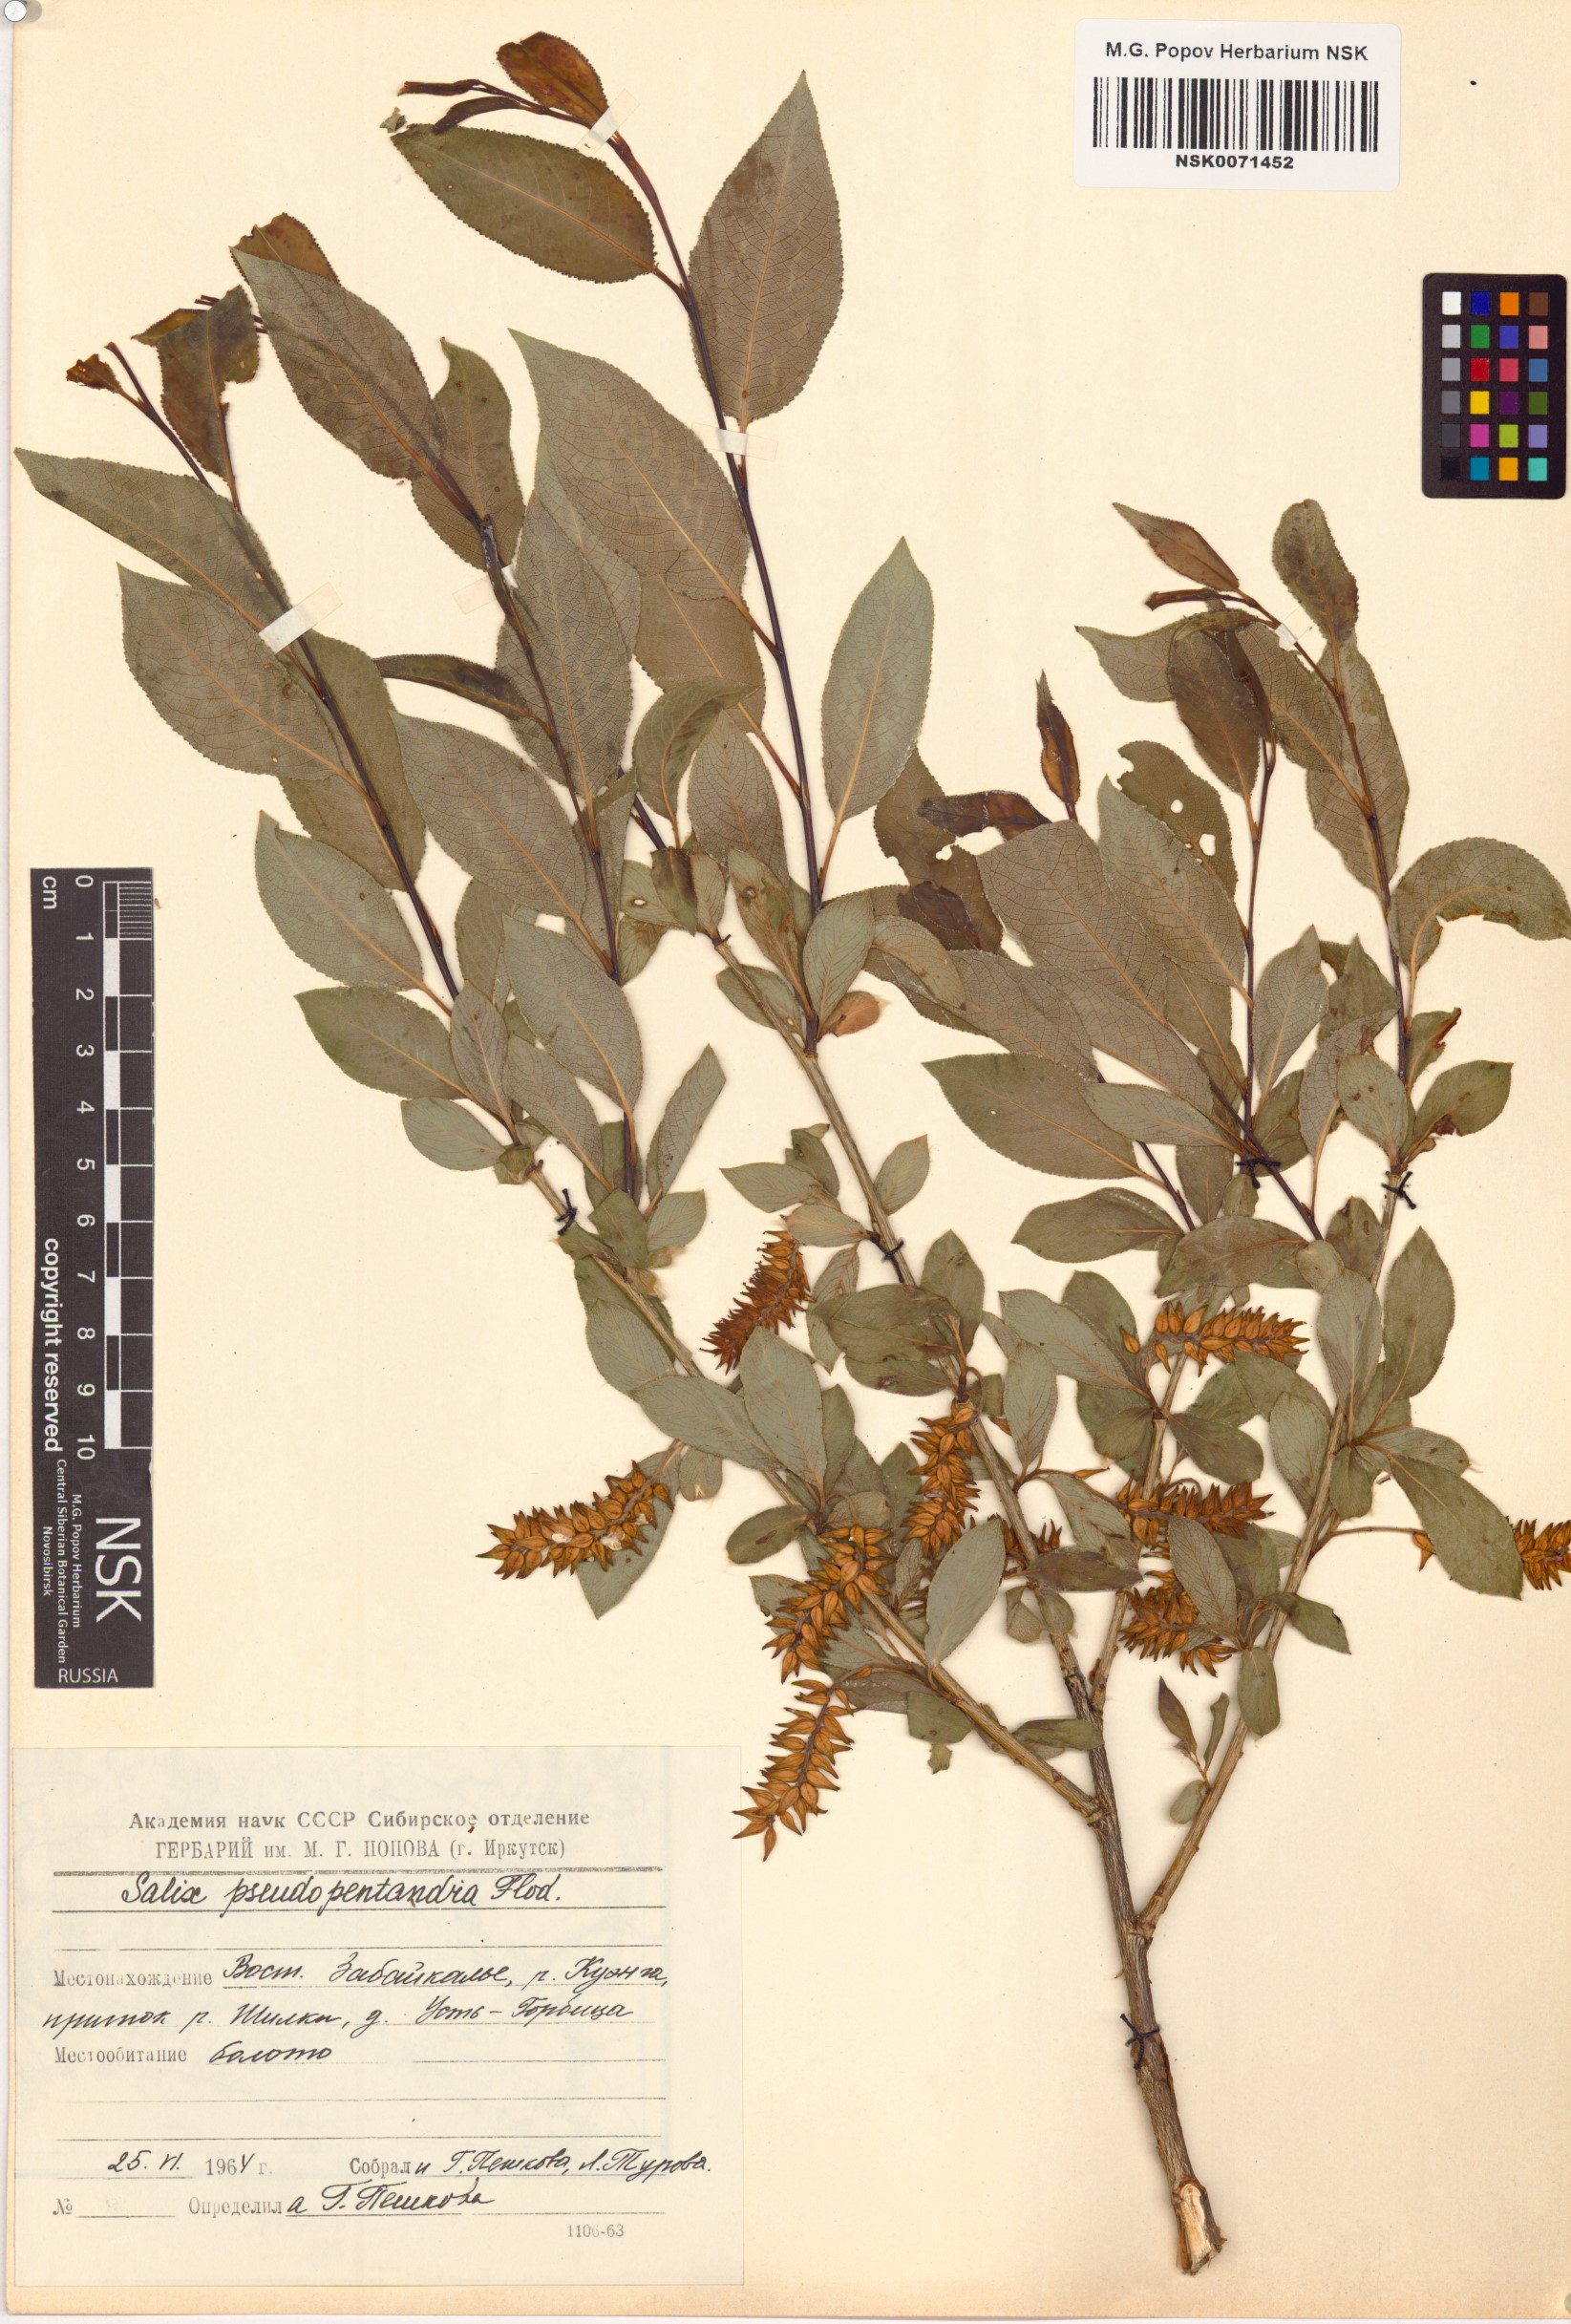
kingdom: Plantae
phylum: Tracheophyta
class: Magnoliopsida
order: Malpighiales
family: Salicaceae
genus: Salix
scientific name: Salix pseudopentandra
